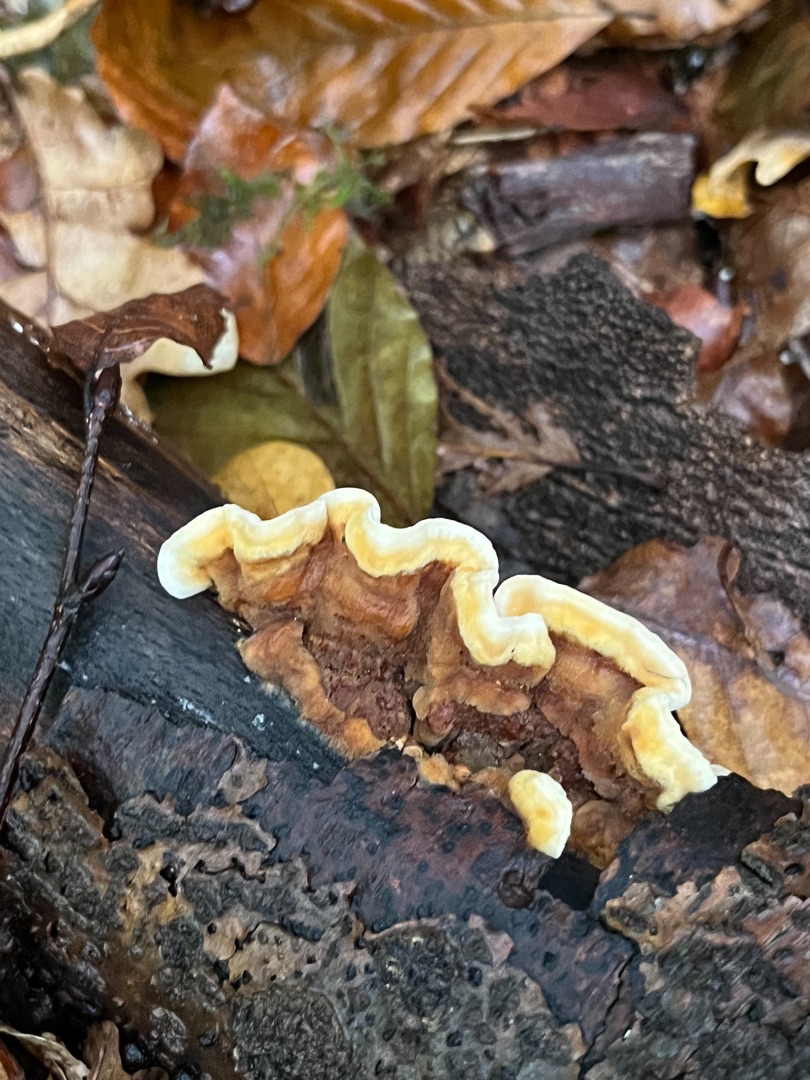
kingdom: Fungi
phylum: Basidiomycota
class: Agaricomycetes
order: Russulales
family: Stereaceae
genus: Stereum
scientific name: Stereum hirsutum
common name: Håret lædersvamp
